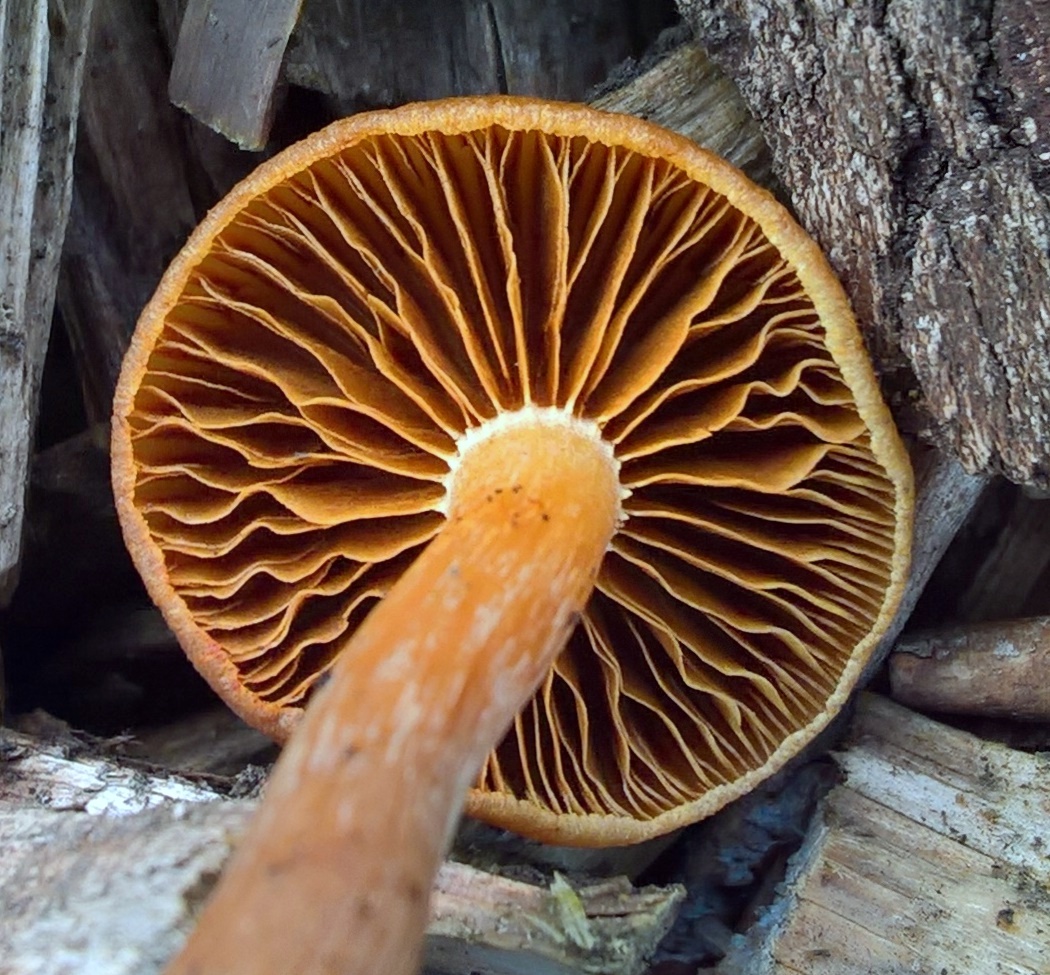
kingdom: Fungi
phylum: Basidiomycota
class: Agaricomycetes
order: Agaricales
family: Tubariaceae
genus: Tubaria
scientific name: Tubaria furfuracea
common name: kliddet fnughat
